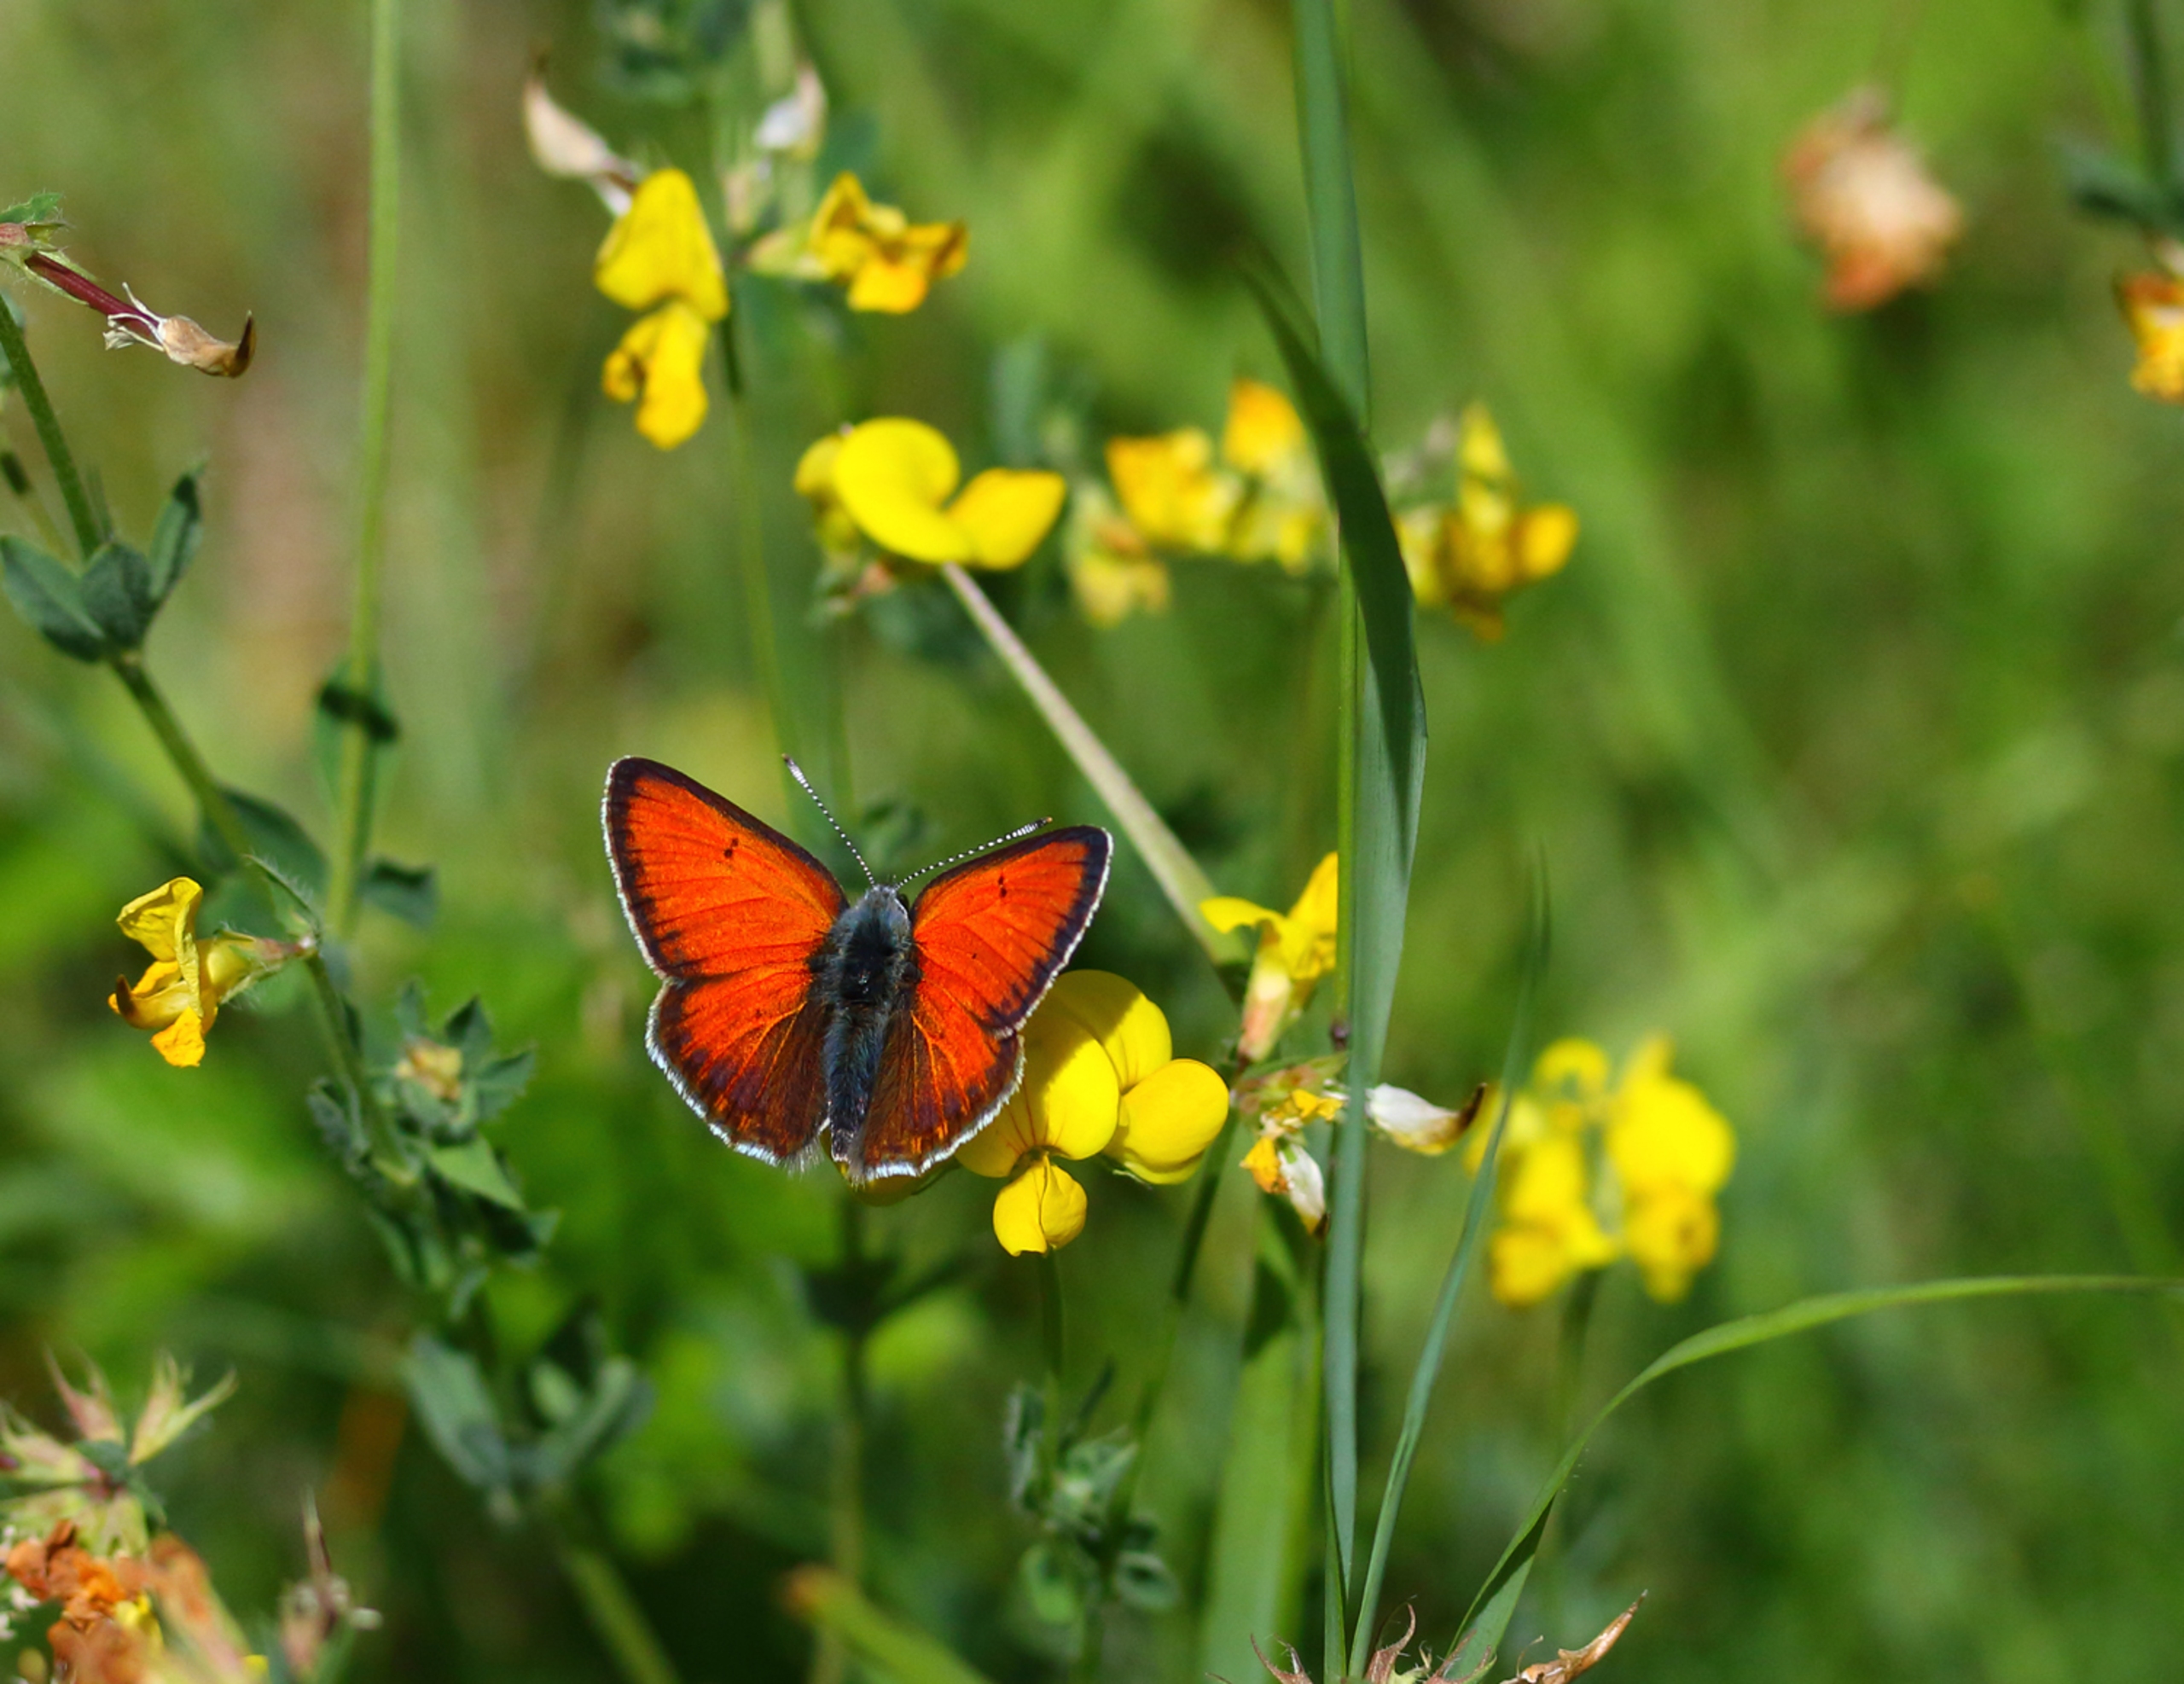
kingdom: Animalia
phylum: Arthropoda
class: Insecta
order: Lepidoptera
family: Lycaenidae
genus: Palaeochrysophanus
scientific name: Palaeochrysophanus hippothoe
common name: Violetrandet ildfugl
